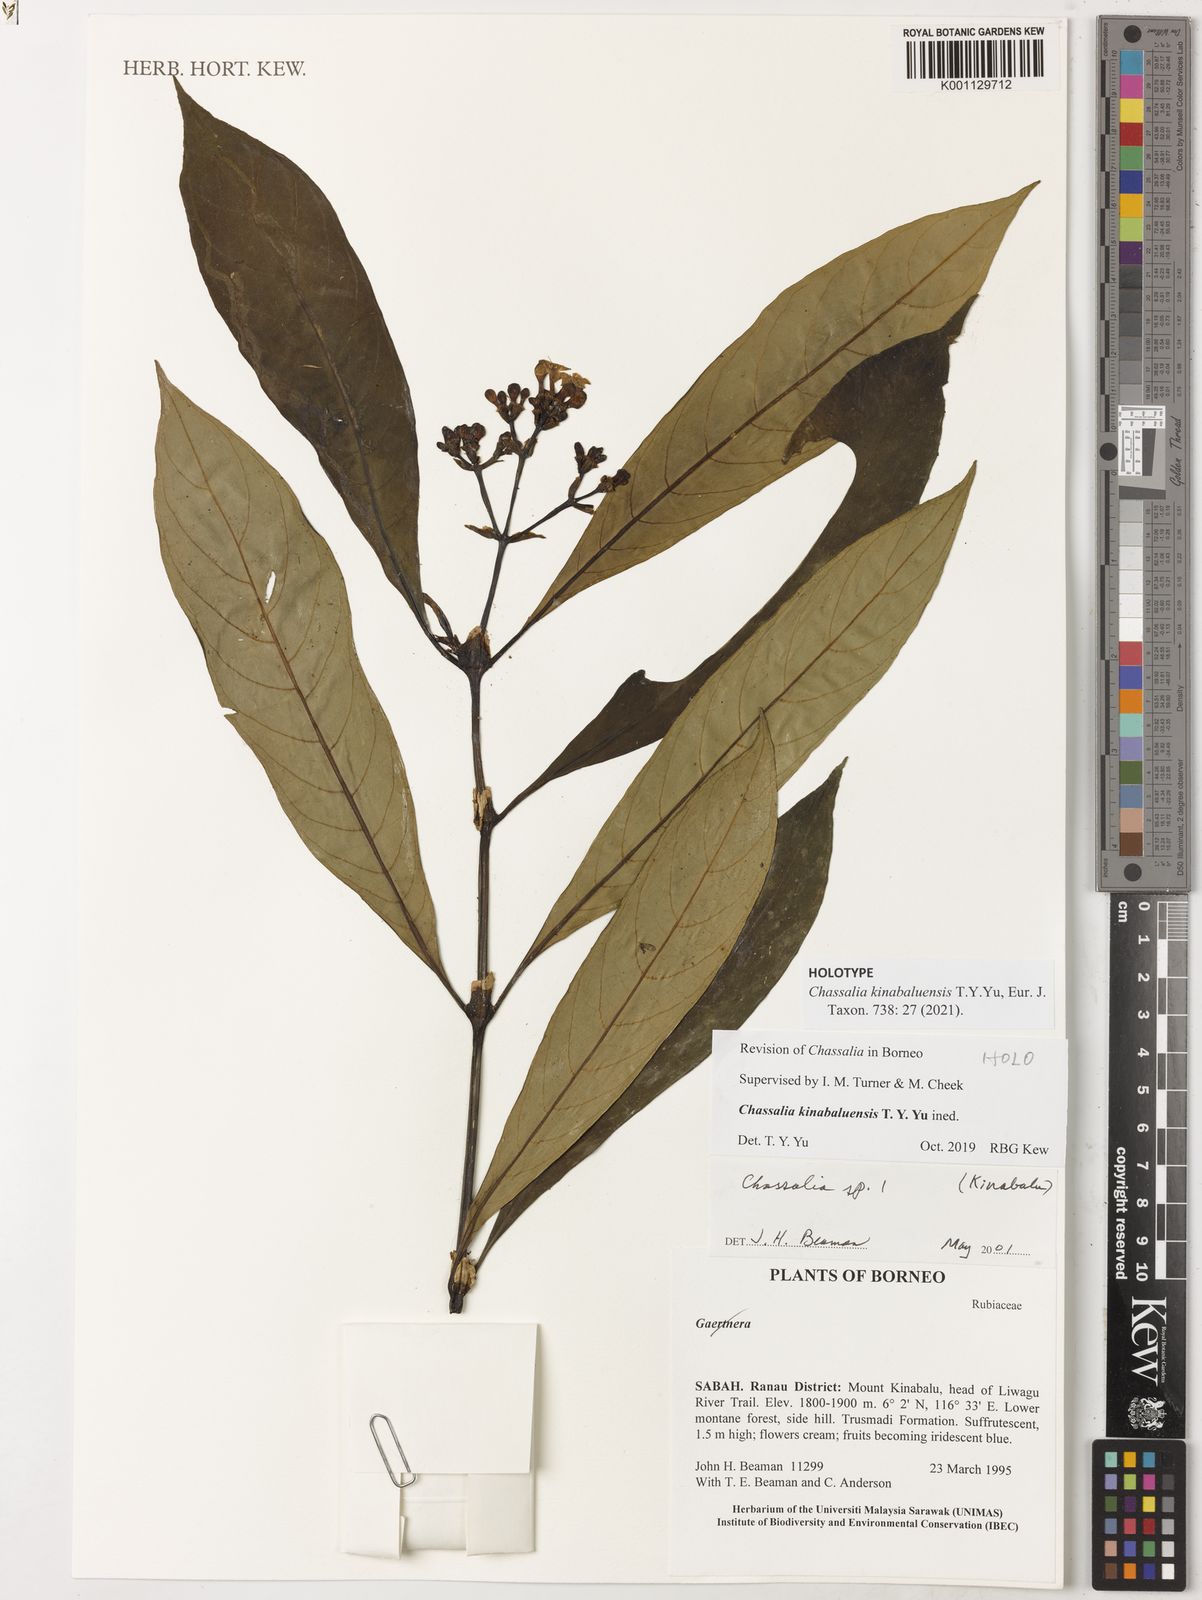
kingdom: Plantae
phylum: Tracheophyta
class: Magnoliopsida
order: Gentianales
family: Rubiaceae
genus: Chassalia
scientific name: Chassalia
